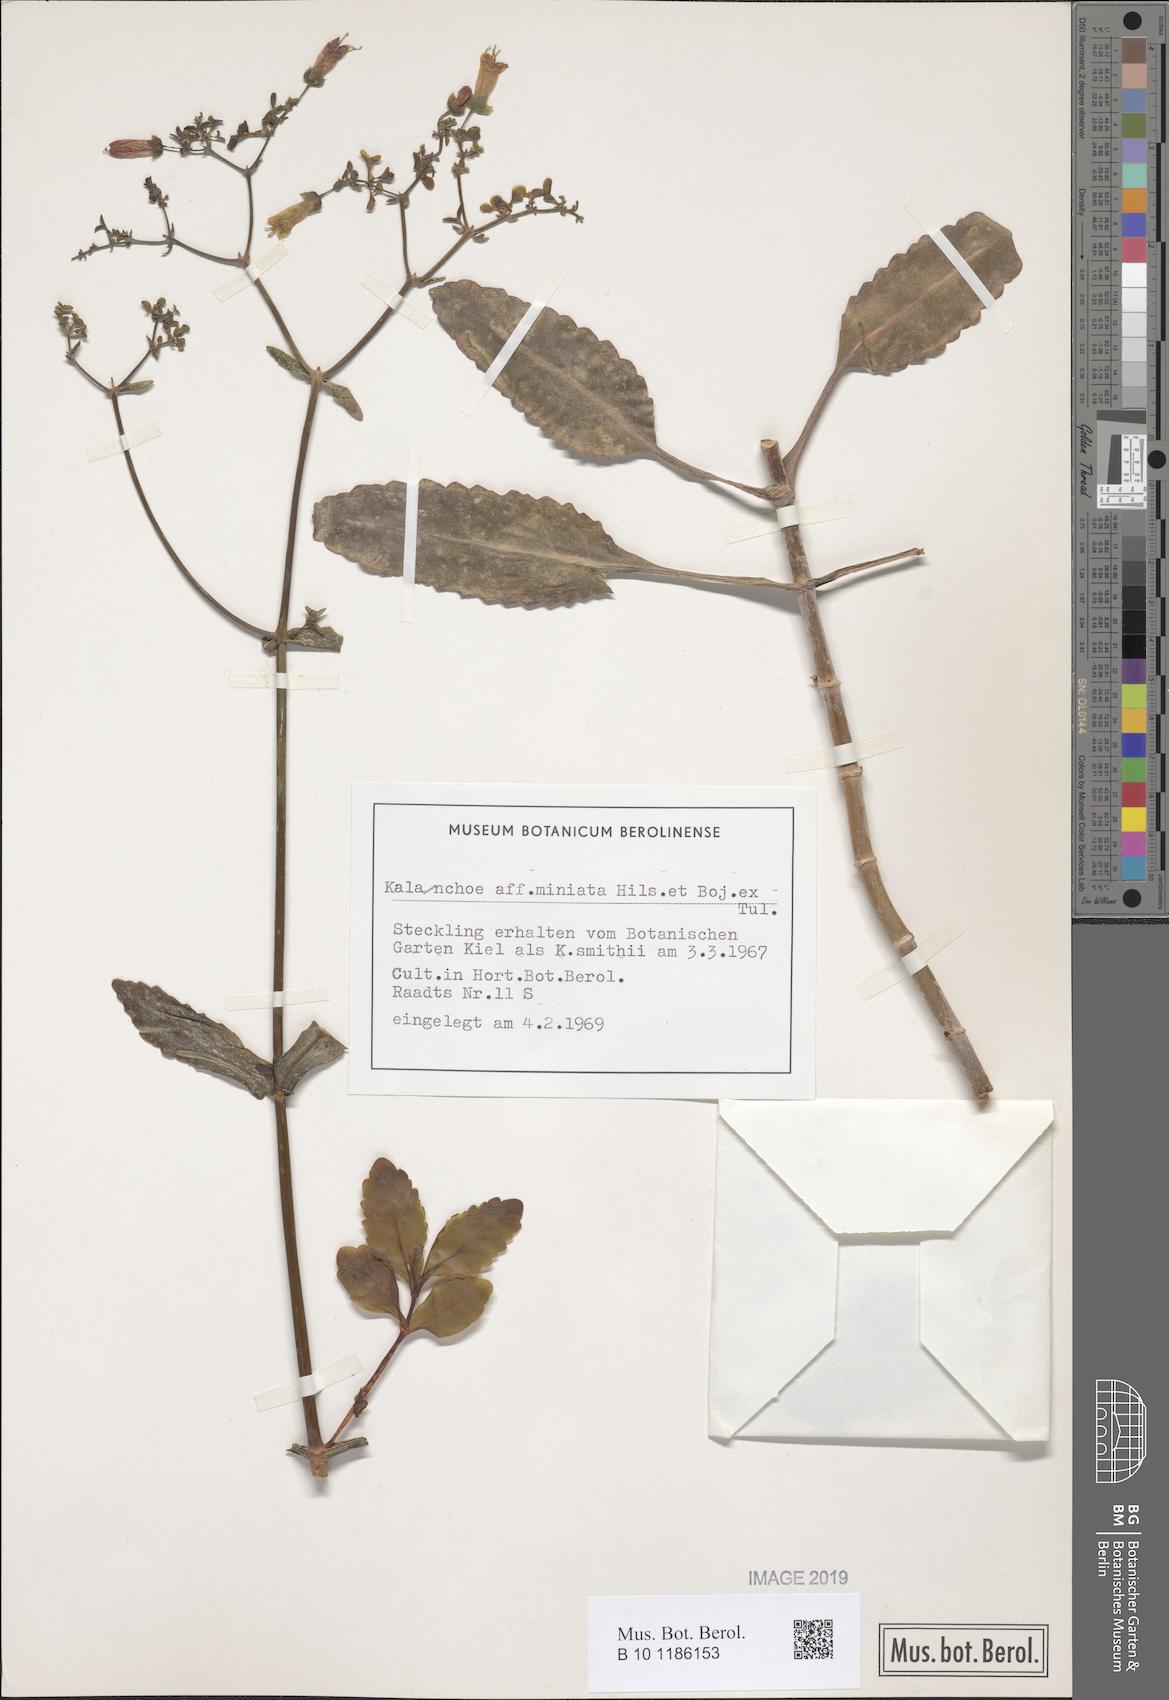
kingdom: Plantae
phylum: Tracheophyta
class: Magnoliopsida
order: Saxifragales
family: Crassulaceae
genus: Kalanchoe
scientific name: Kalanchoe miniata
